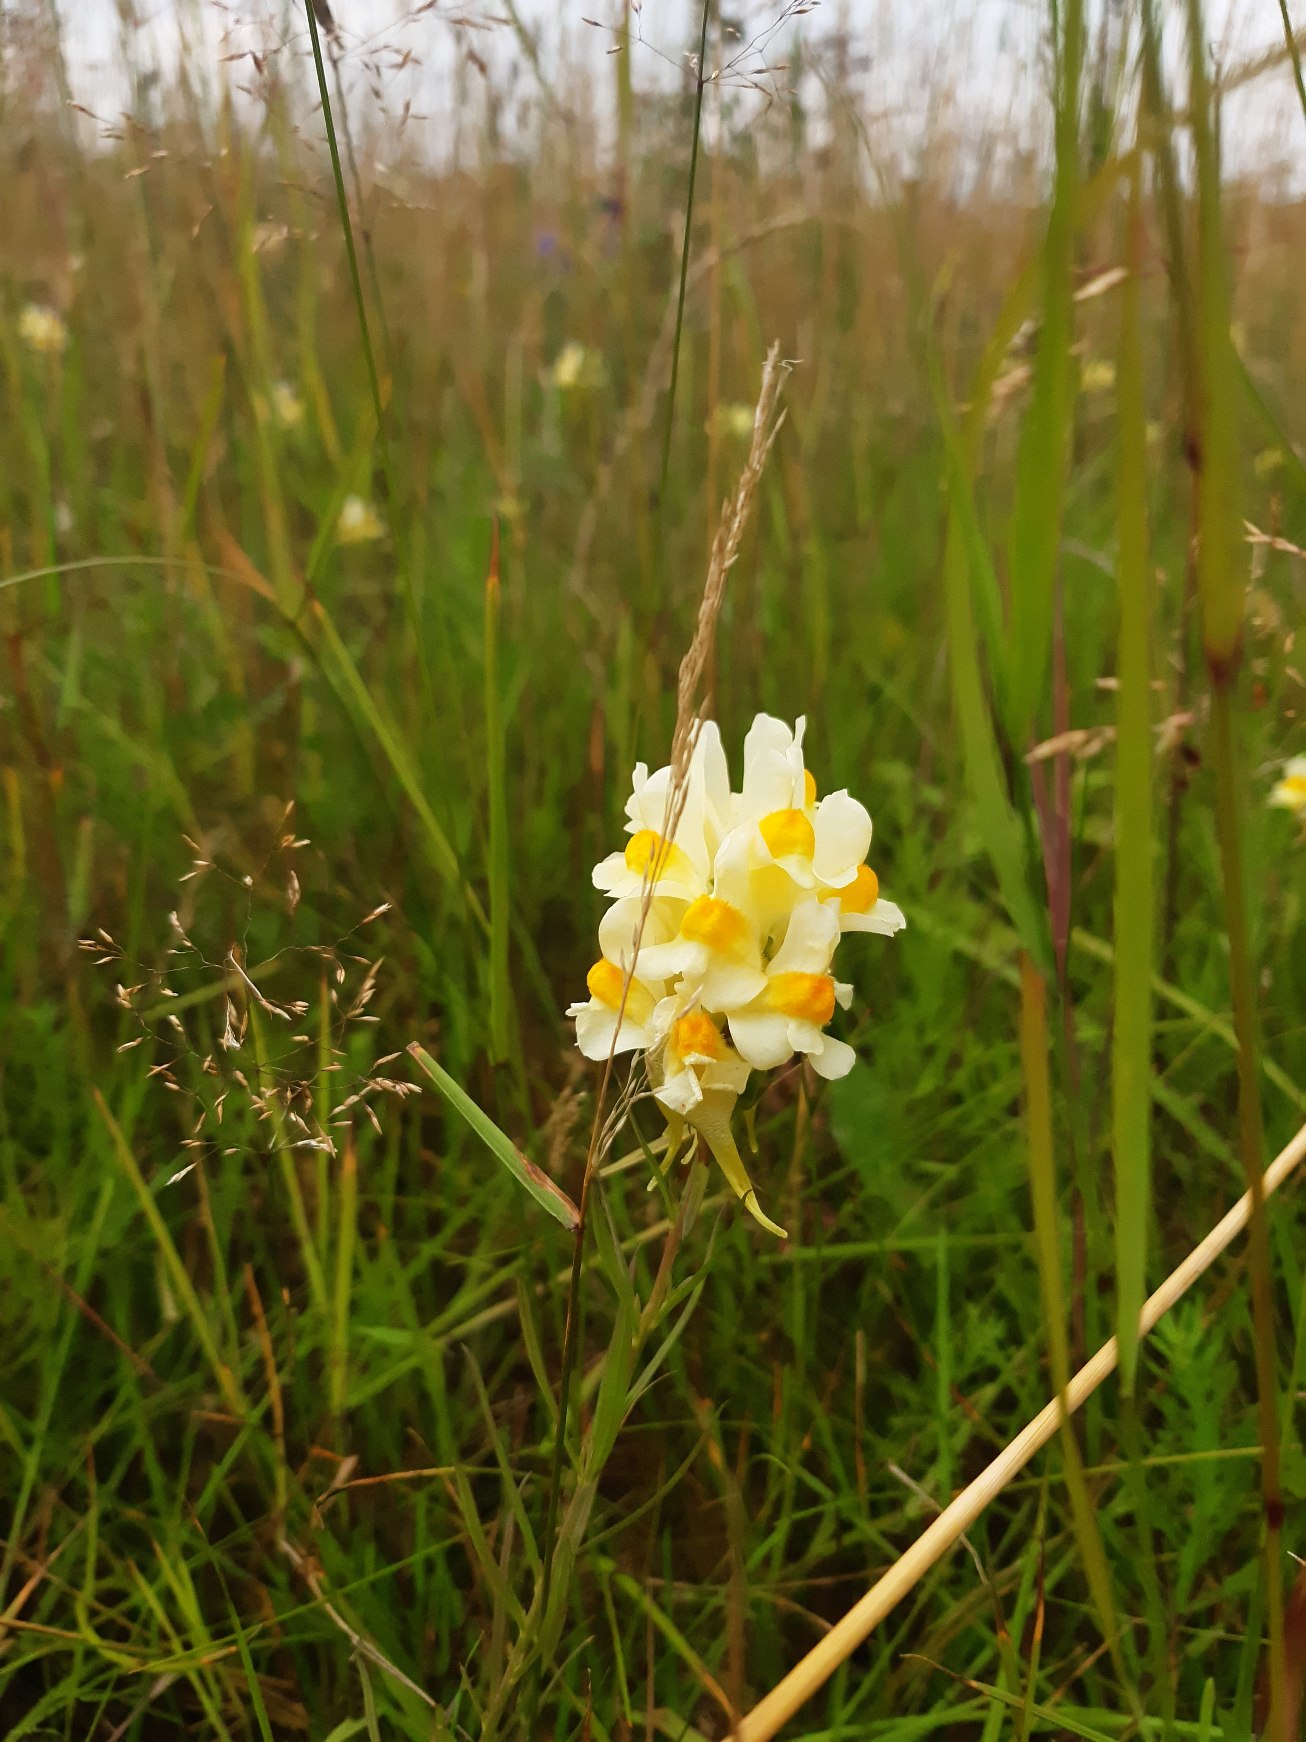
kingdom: Plantae
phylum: Tracheophyta
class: Magnoliopsida
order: Lamiales
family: Plantaginaceae
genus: Linaria
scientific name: Linaria vulgaris
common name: Almindelig torskemund
